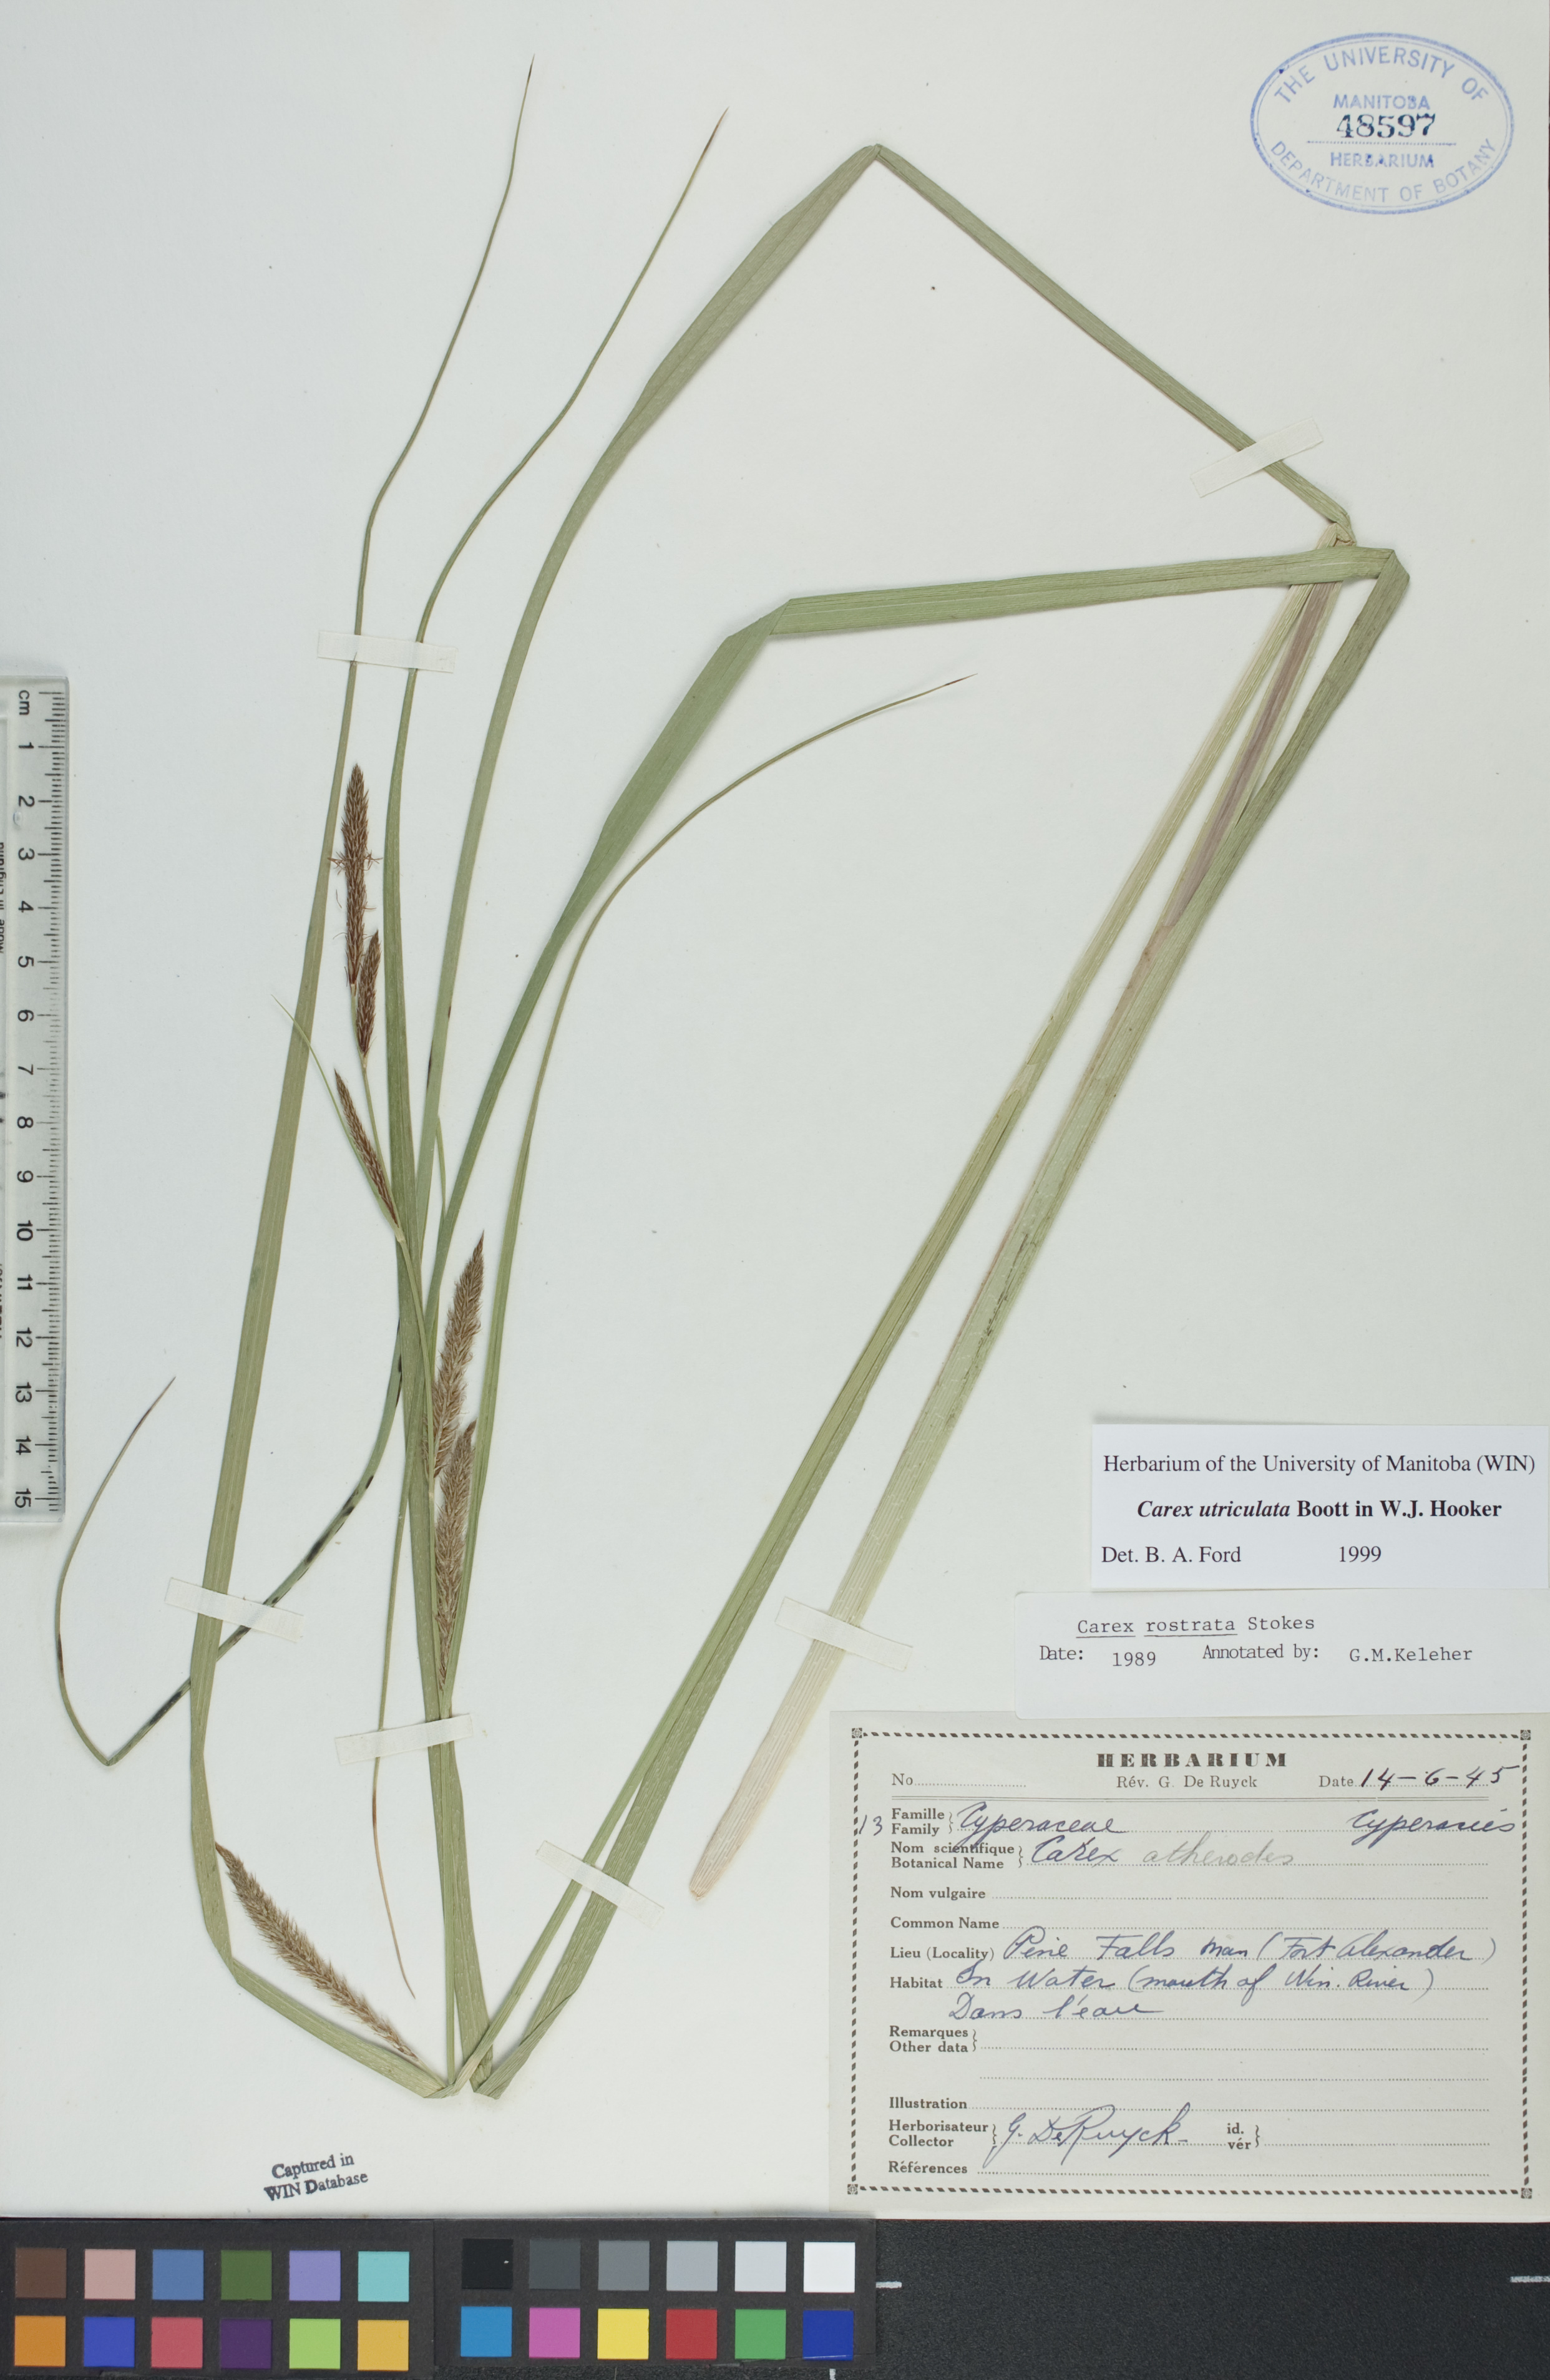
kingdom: Plantae
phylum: Tracheophyta
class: Liliopsida
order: Poales
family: Cyperaceae
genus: Carex
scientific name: Carex utriculata
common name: Beaked sedge
